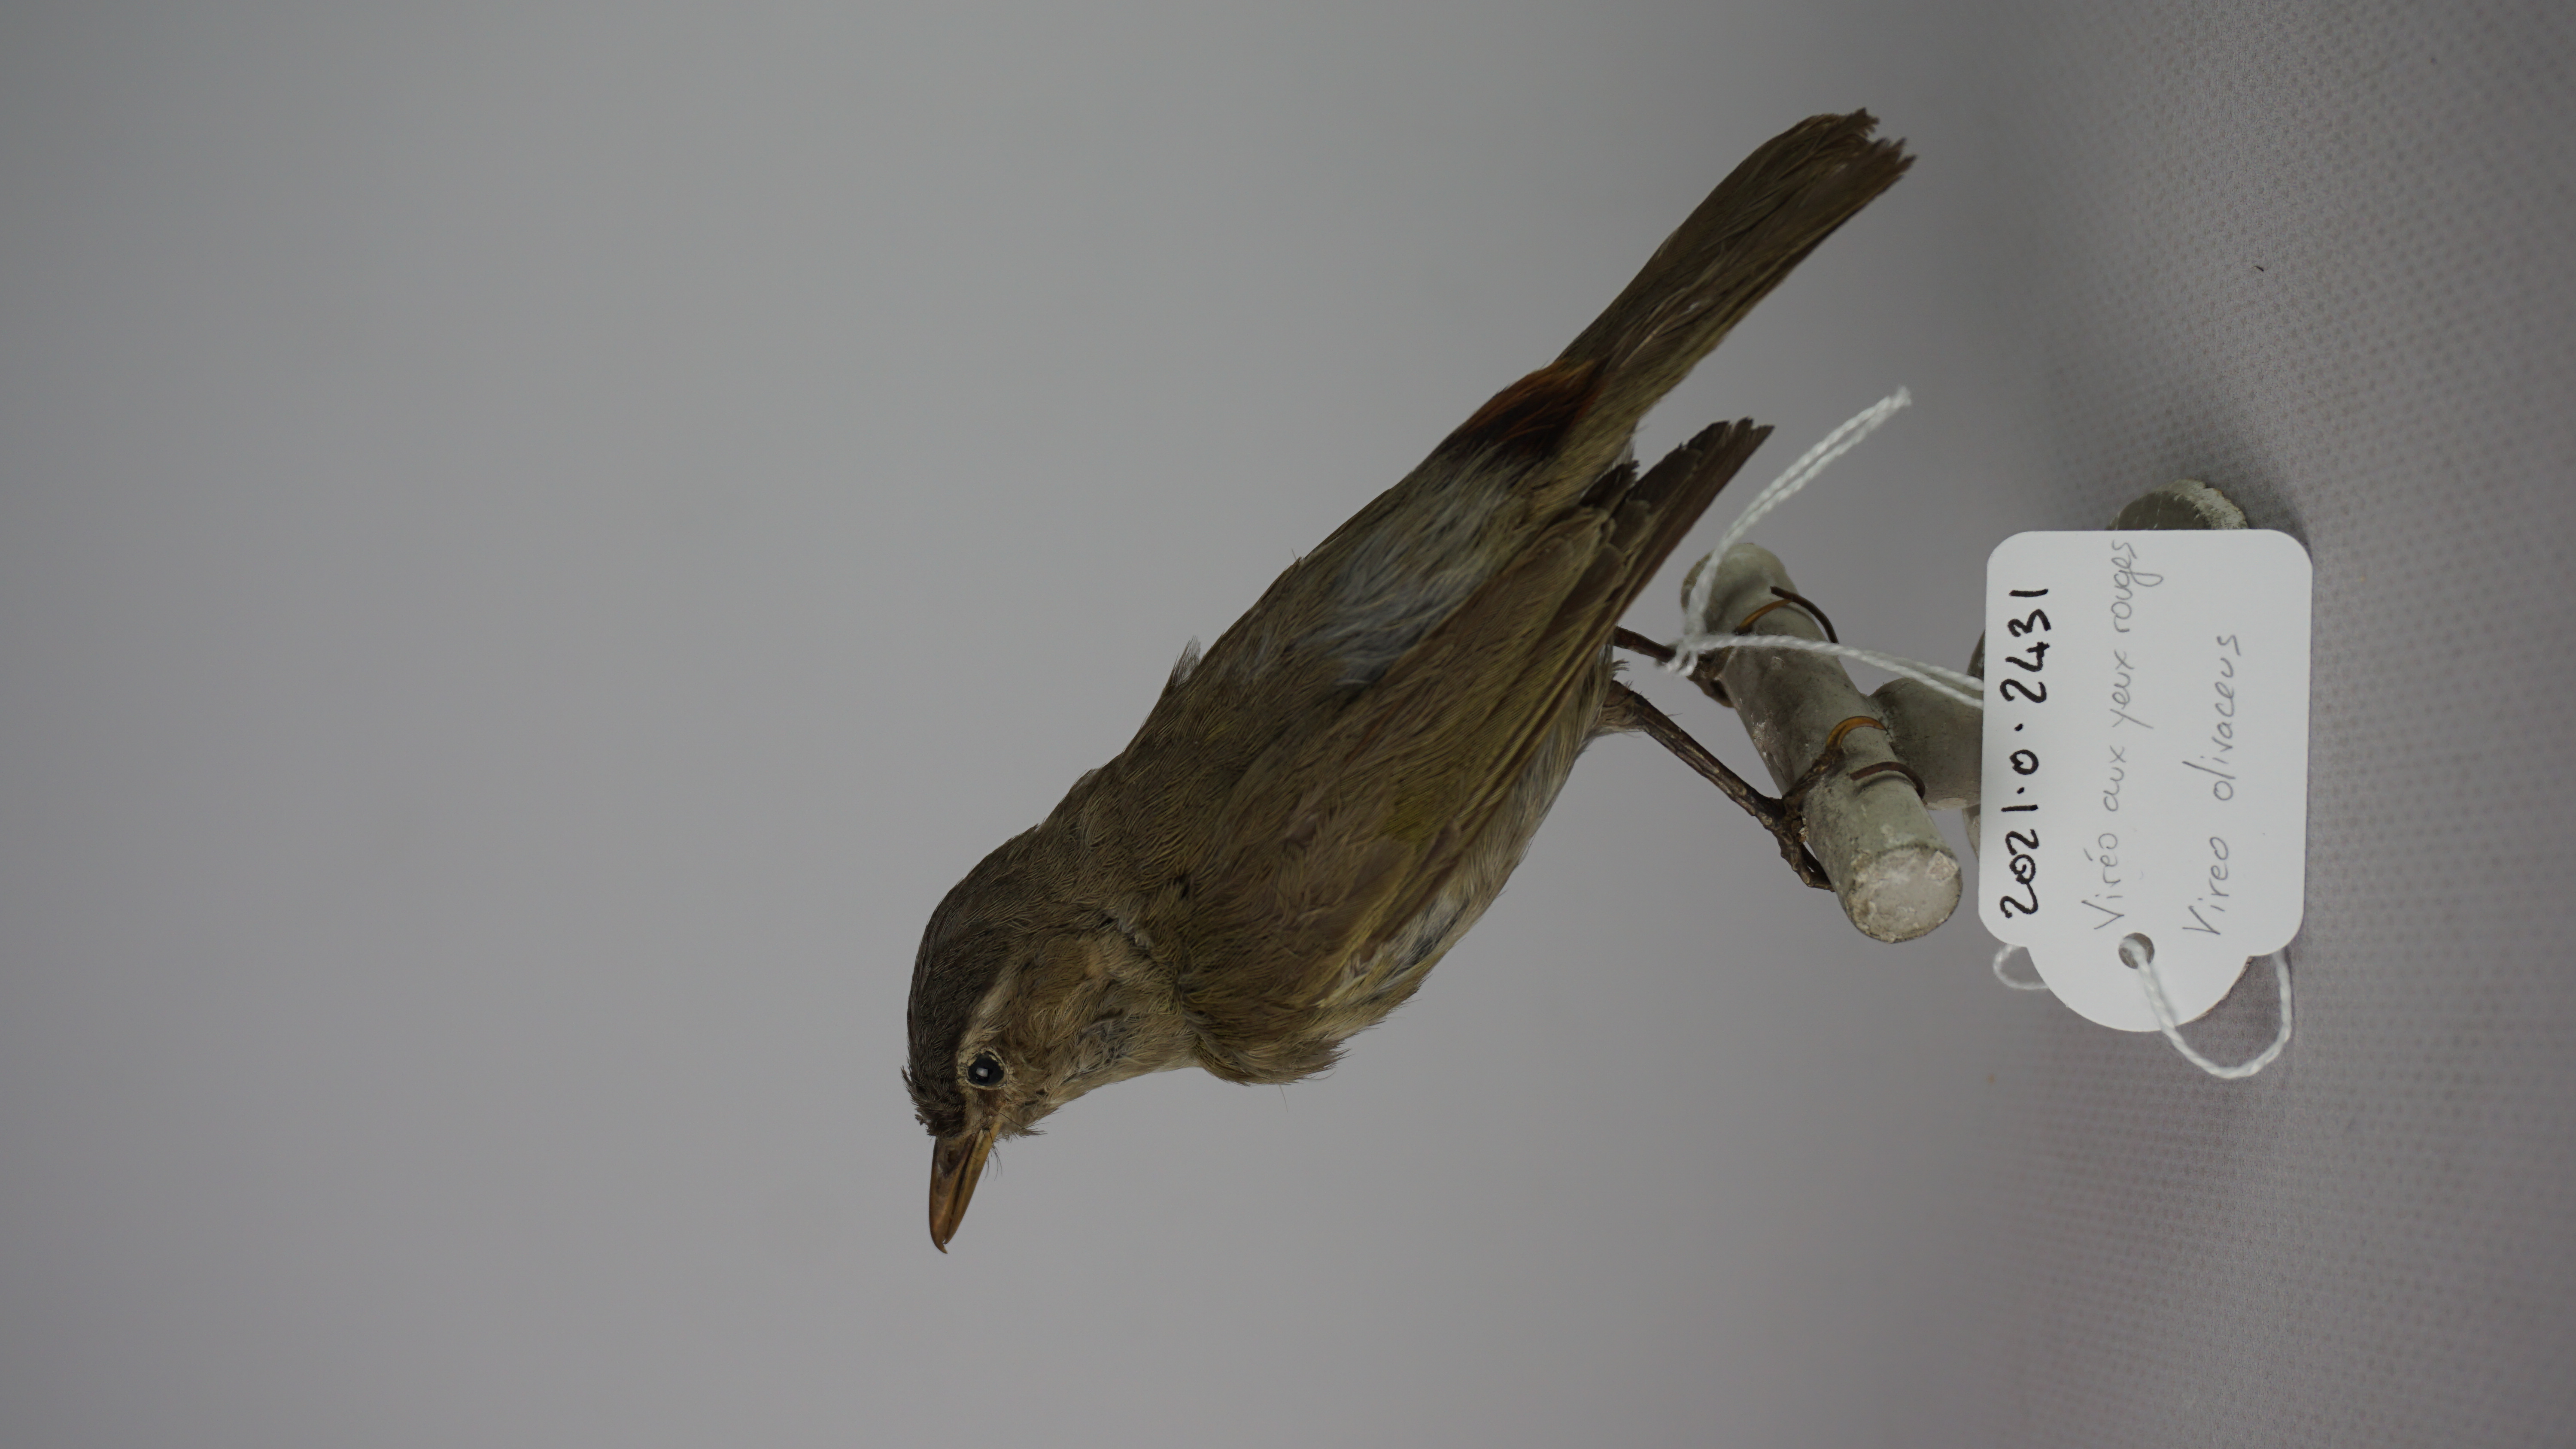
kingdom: Animalia
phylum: Chordata
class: Aves
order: Passeriformes
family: Vireonidae
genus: Vireo
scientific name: Vireo olivaceus
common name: Red-eyed vireo
